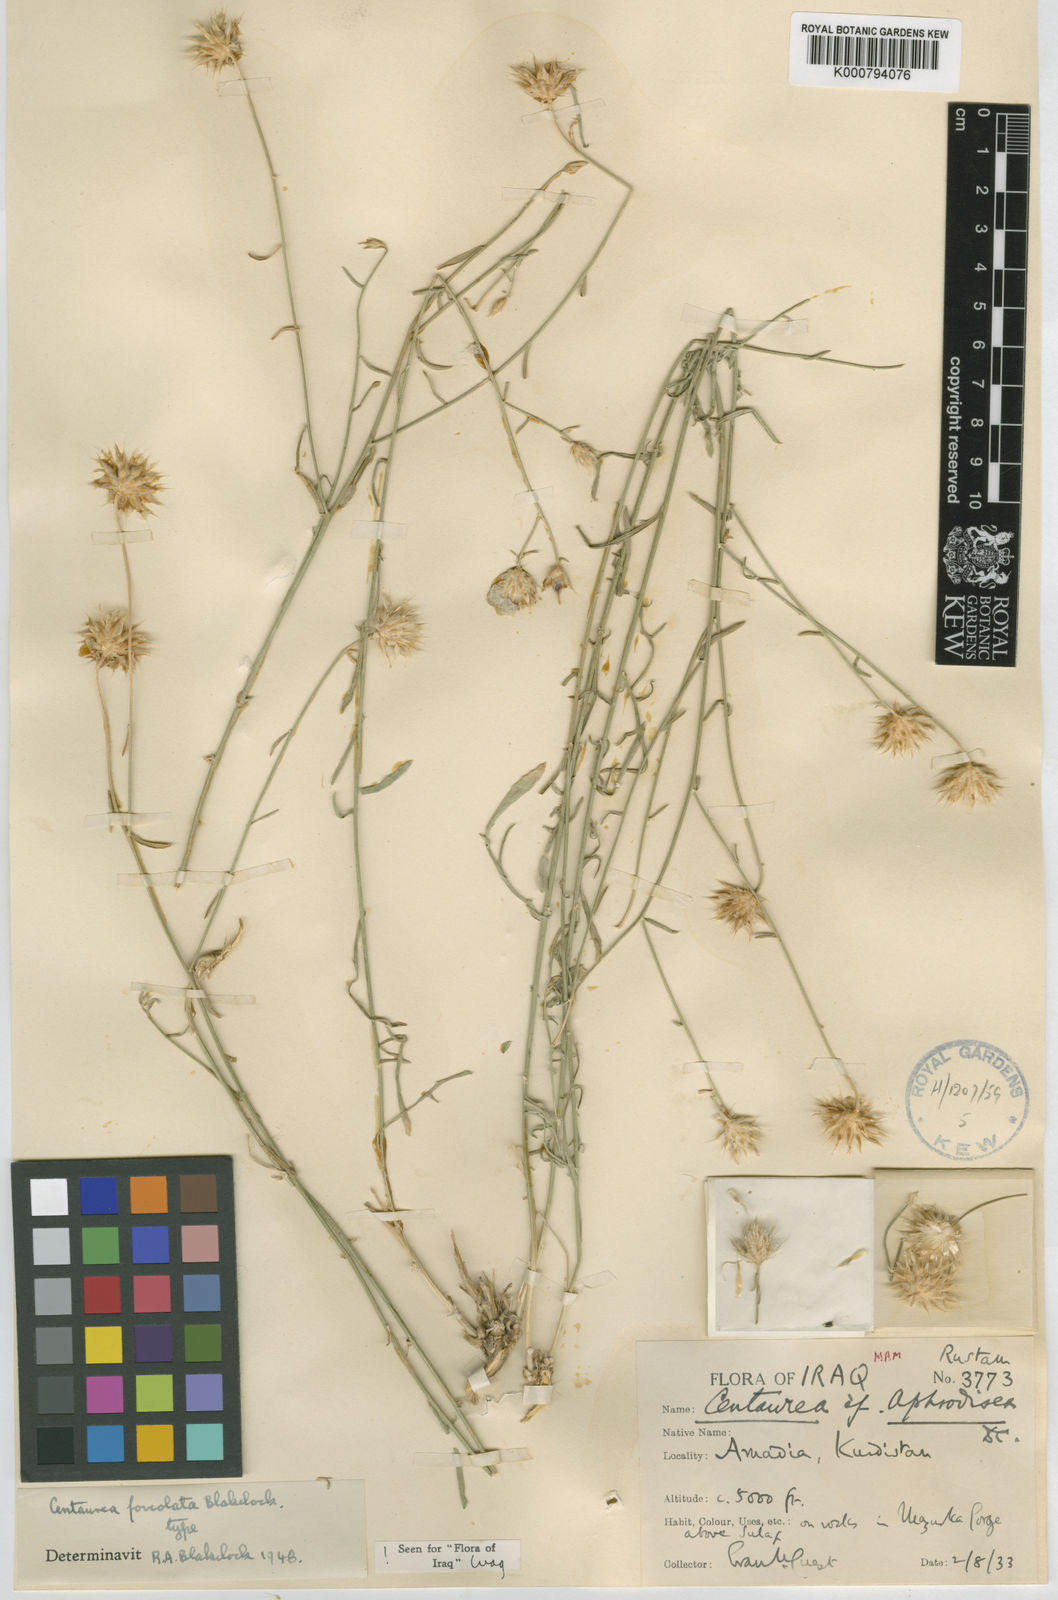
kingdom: Plantae
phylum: Tracheophyta
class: Magnoliopsida
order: Asterales
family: Asteraceae
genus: Centaurea
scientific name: Centaurea foveolata
